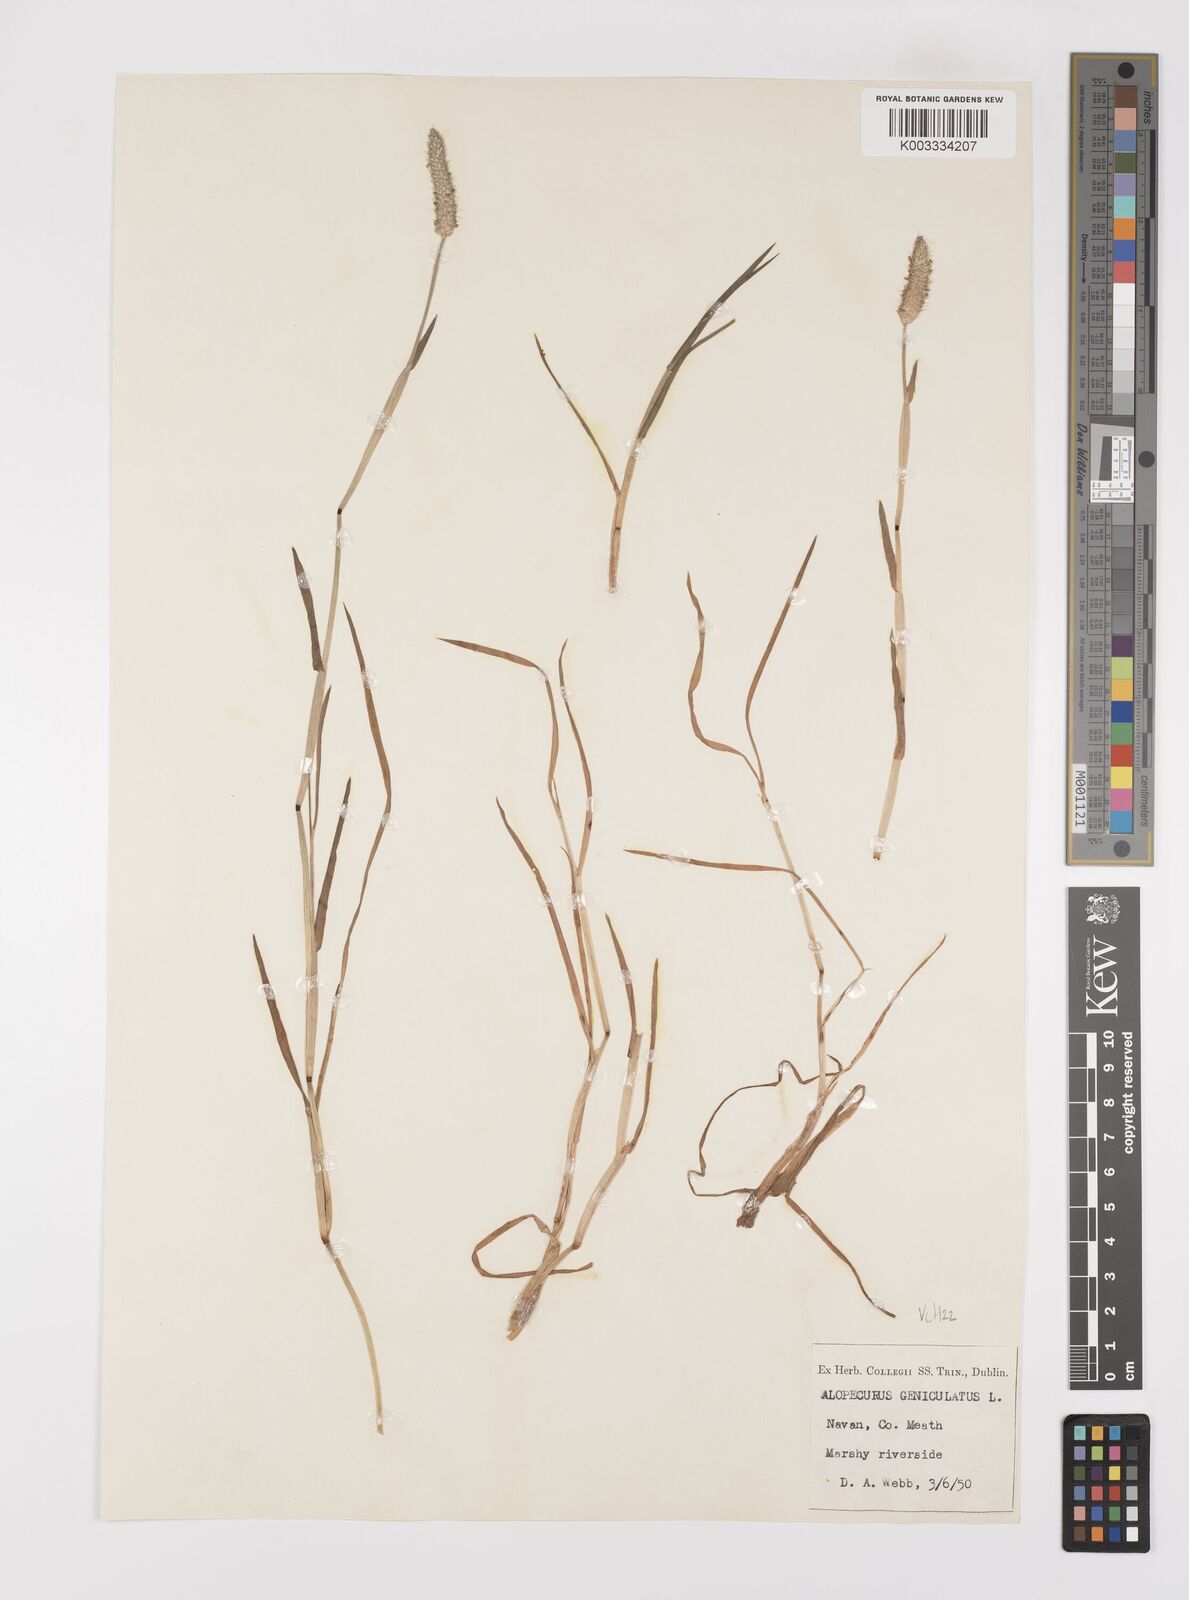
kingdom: Plantae
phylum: Tracheophyta
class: Liliopsida
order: Poales
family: Poaceae
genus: Alopecurus
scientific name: Alopecurus geniculatus
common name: Water foxtail
